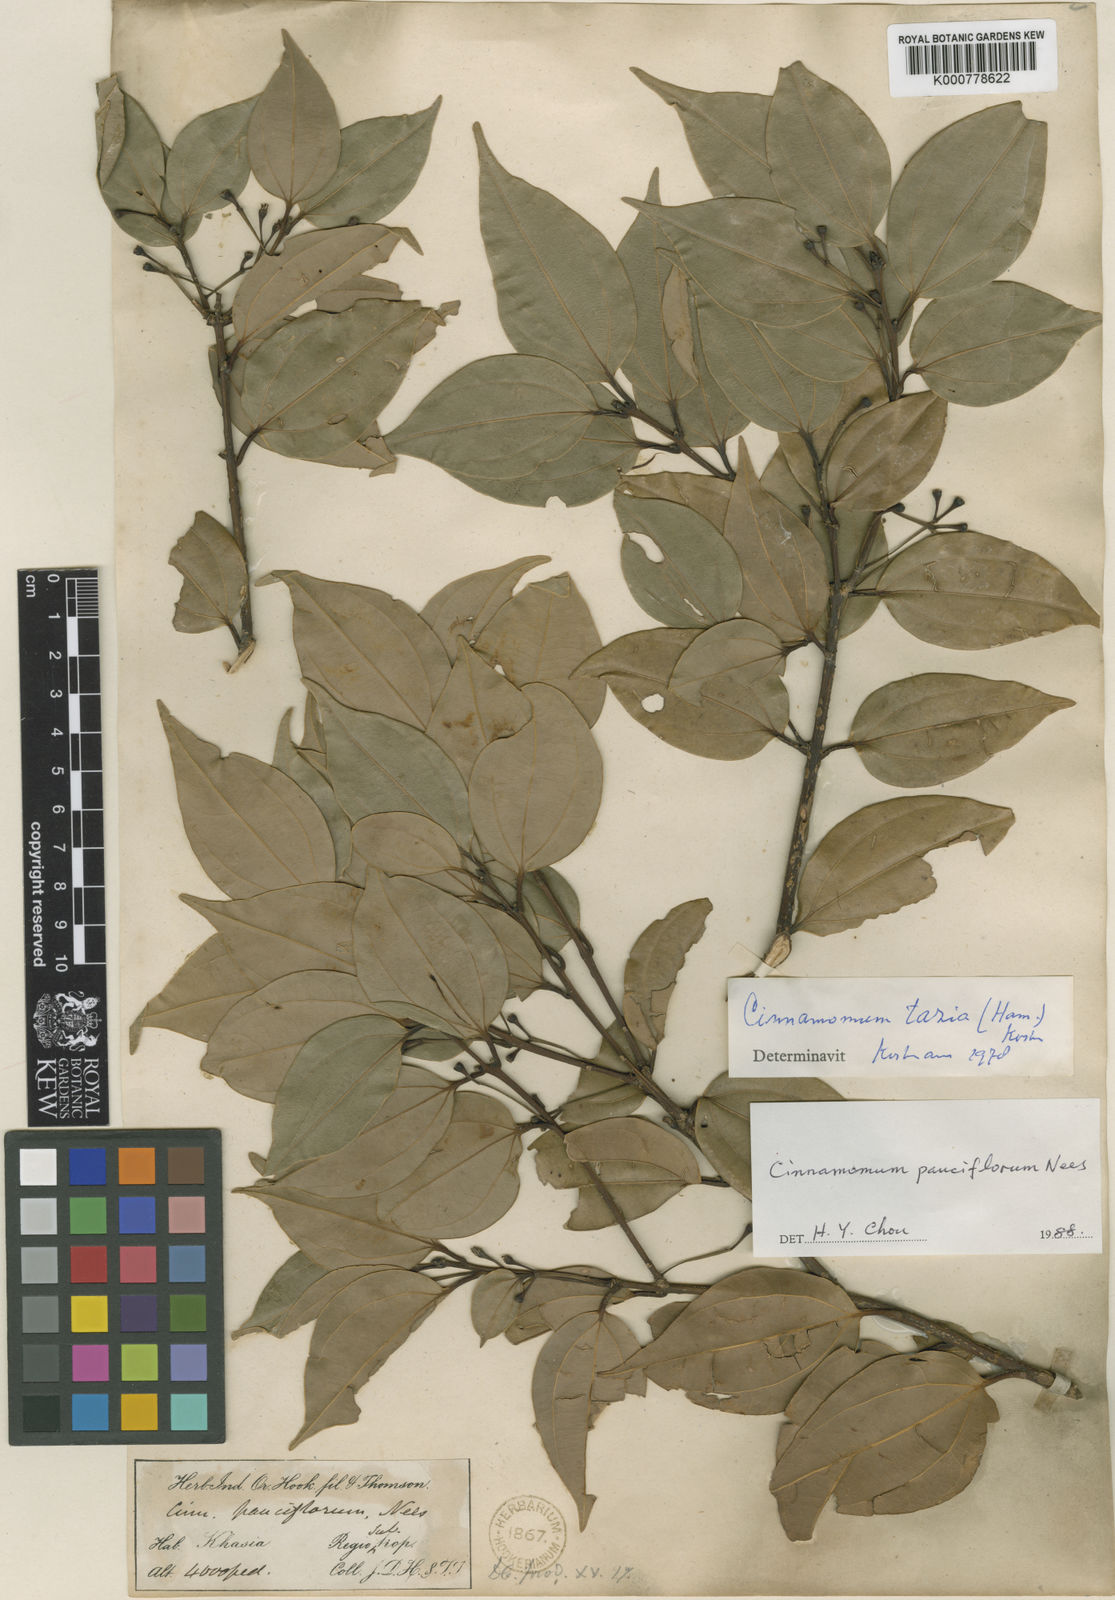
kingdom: Plantae
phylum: Tracheophyta
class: Magnoliopsida
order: Laurales
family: Lauraceae
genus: Cinnamomum
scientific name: Cinnamomum
